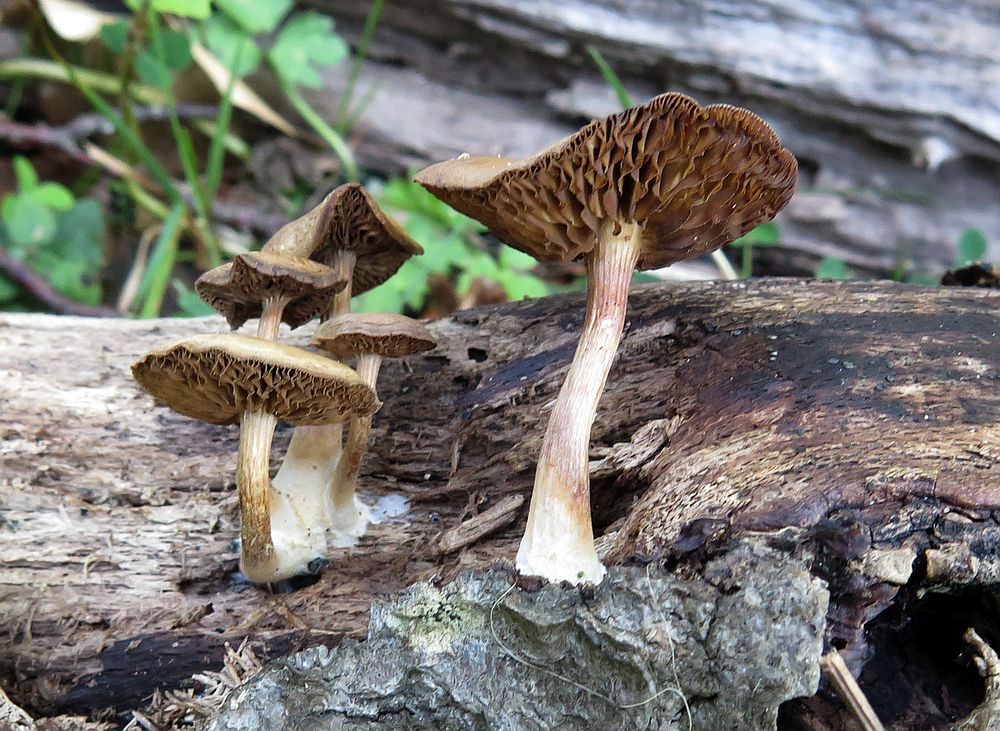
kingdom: Fungi
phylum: Basidiomycota
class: Agaricomycetes
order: Agaricales
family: Crepidotaceae
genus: Simocybe
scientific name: Simocybe sumptuosa
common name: stor skyggehat
